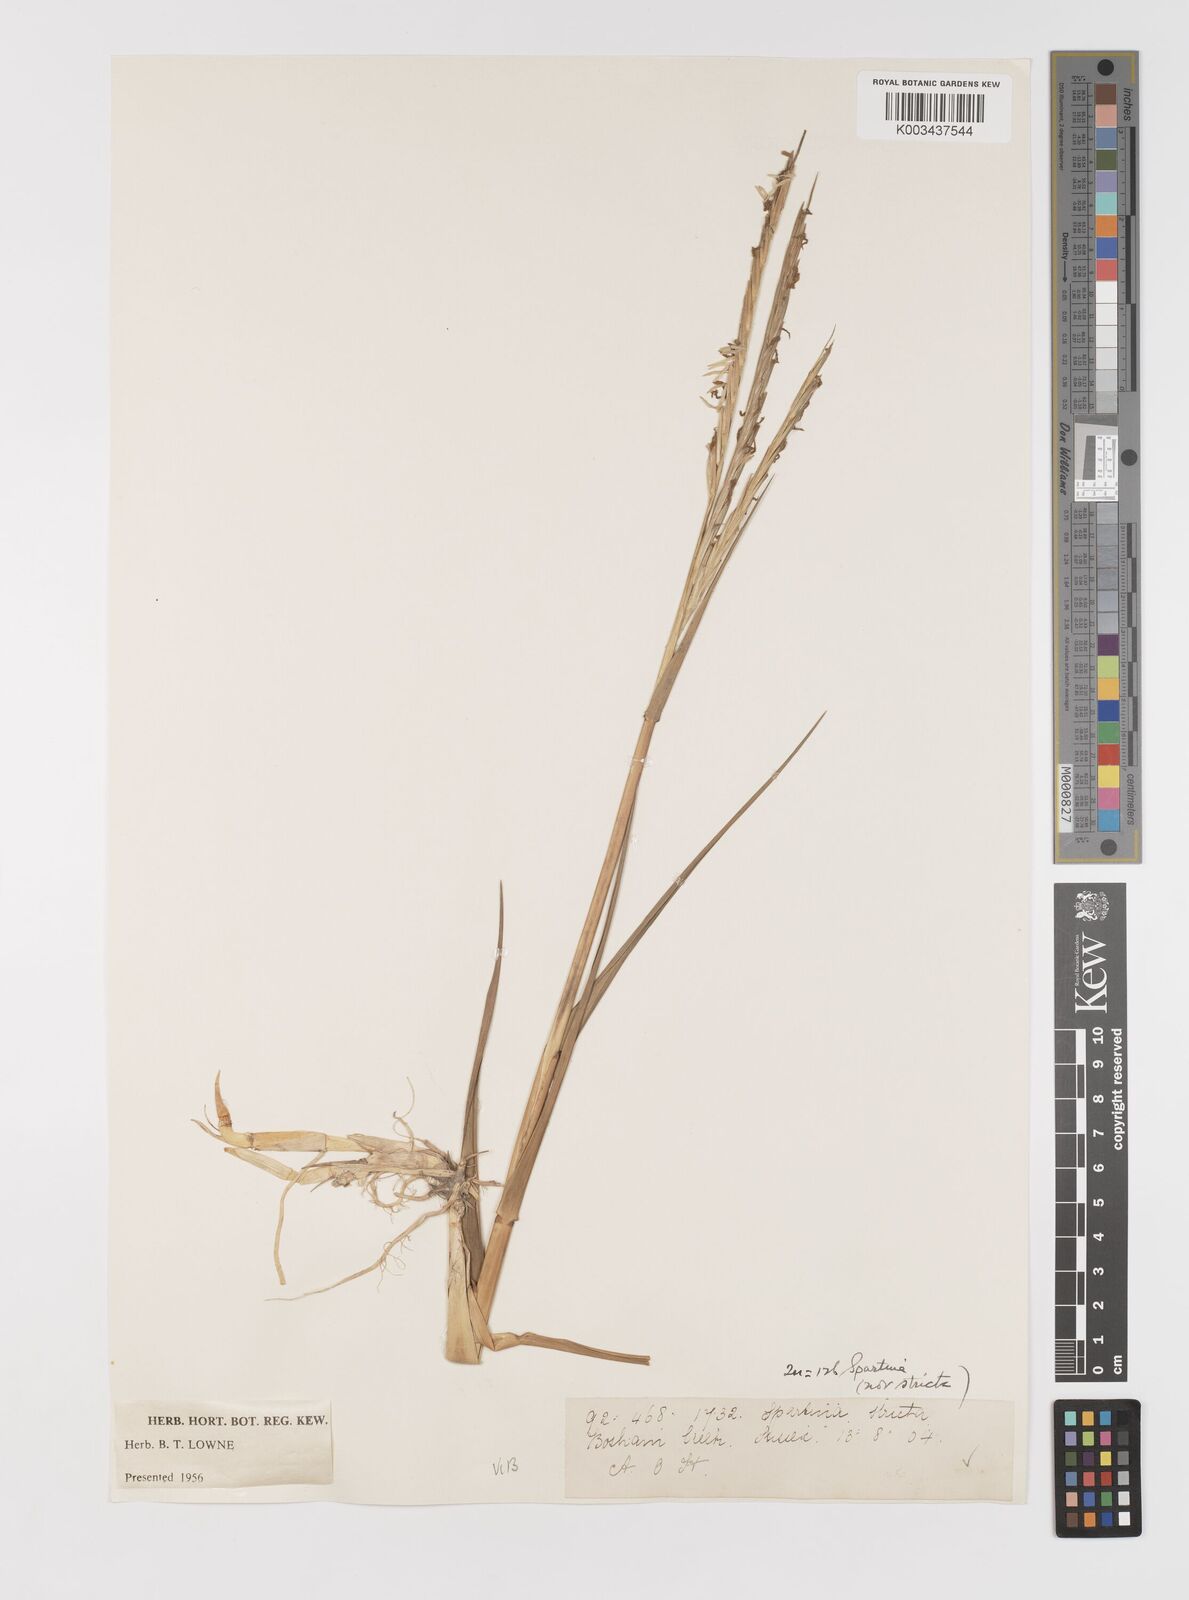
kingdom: Plantae
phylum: Tracheophyta
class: Liliopsida
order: Poales
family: Poaceae
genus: Sporobolus
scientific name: Sporobolus anglicus
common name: English cordgrass
